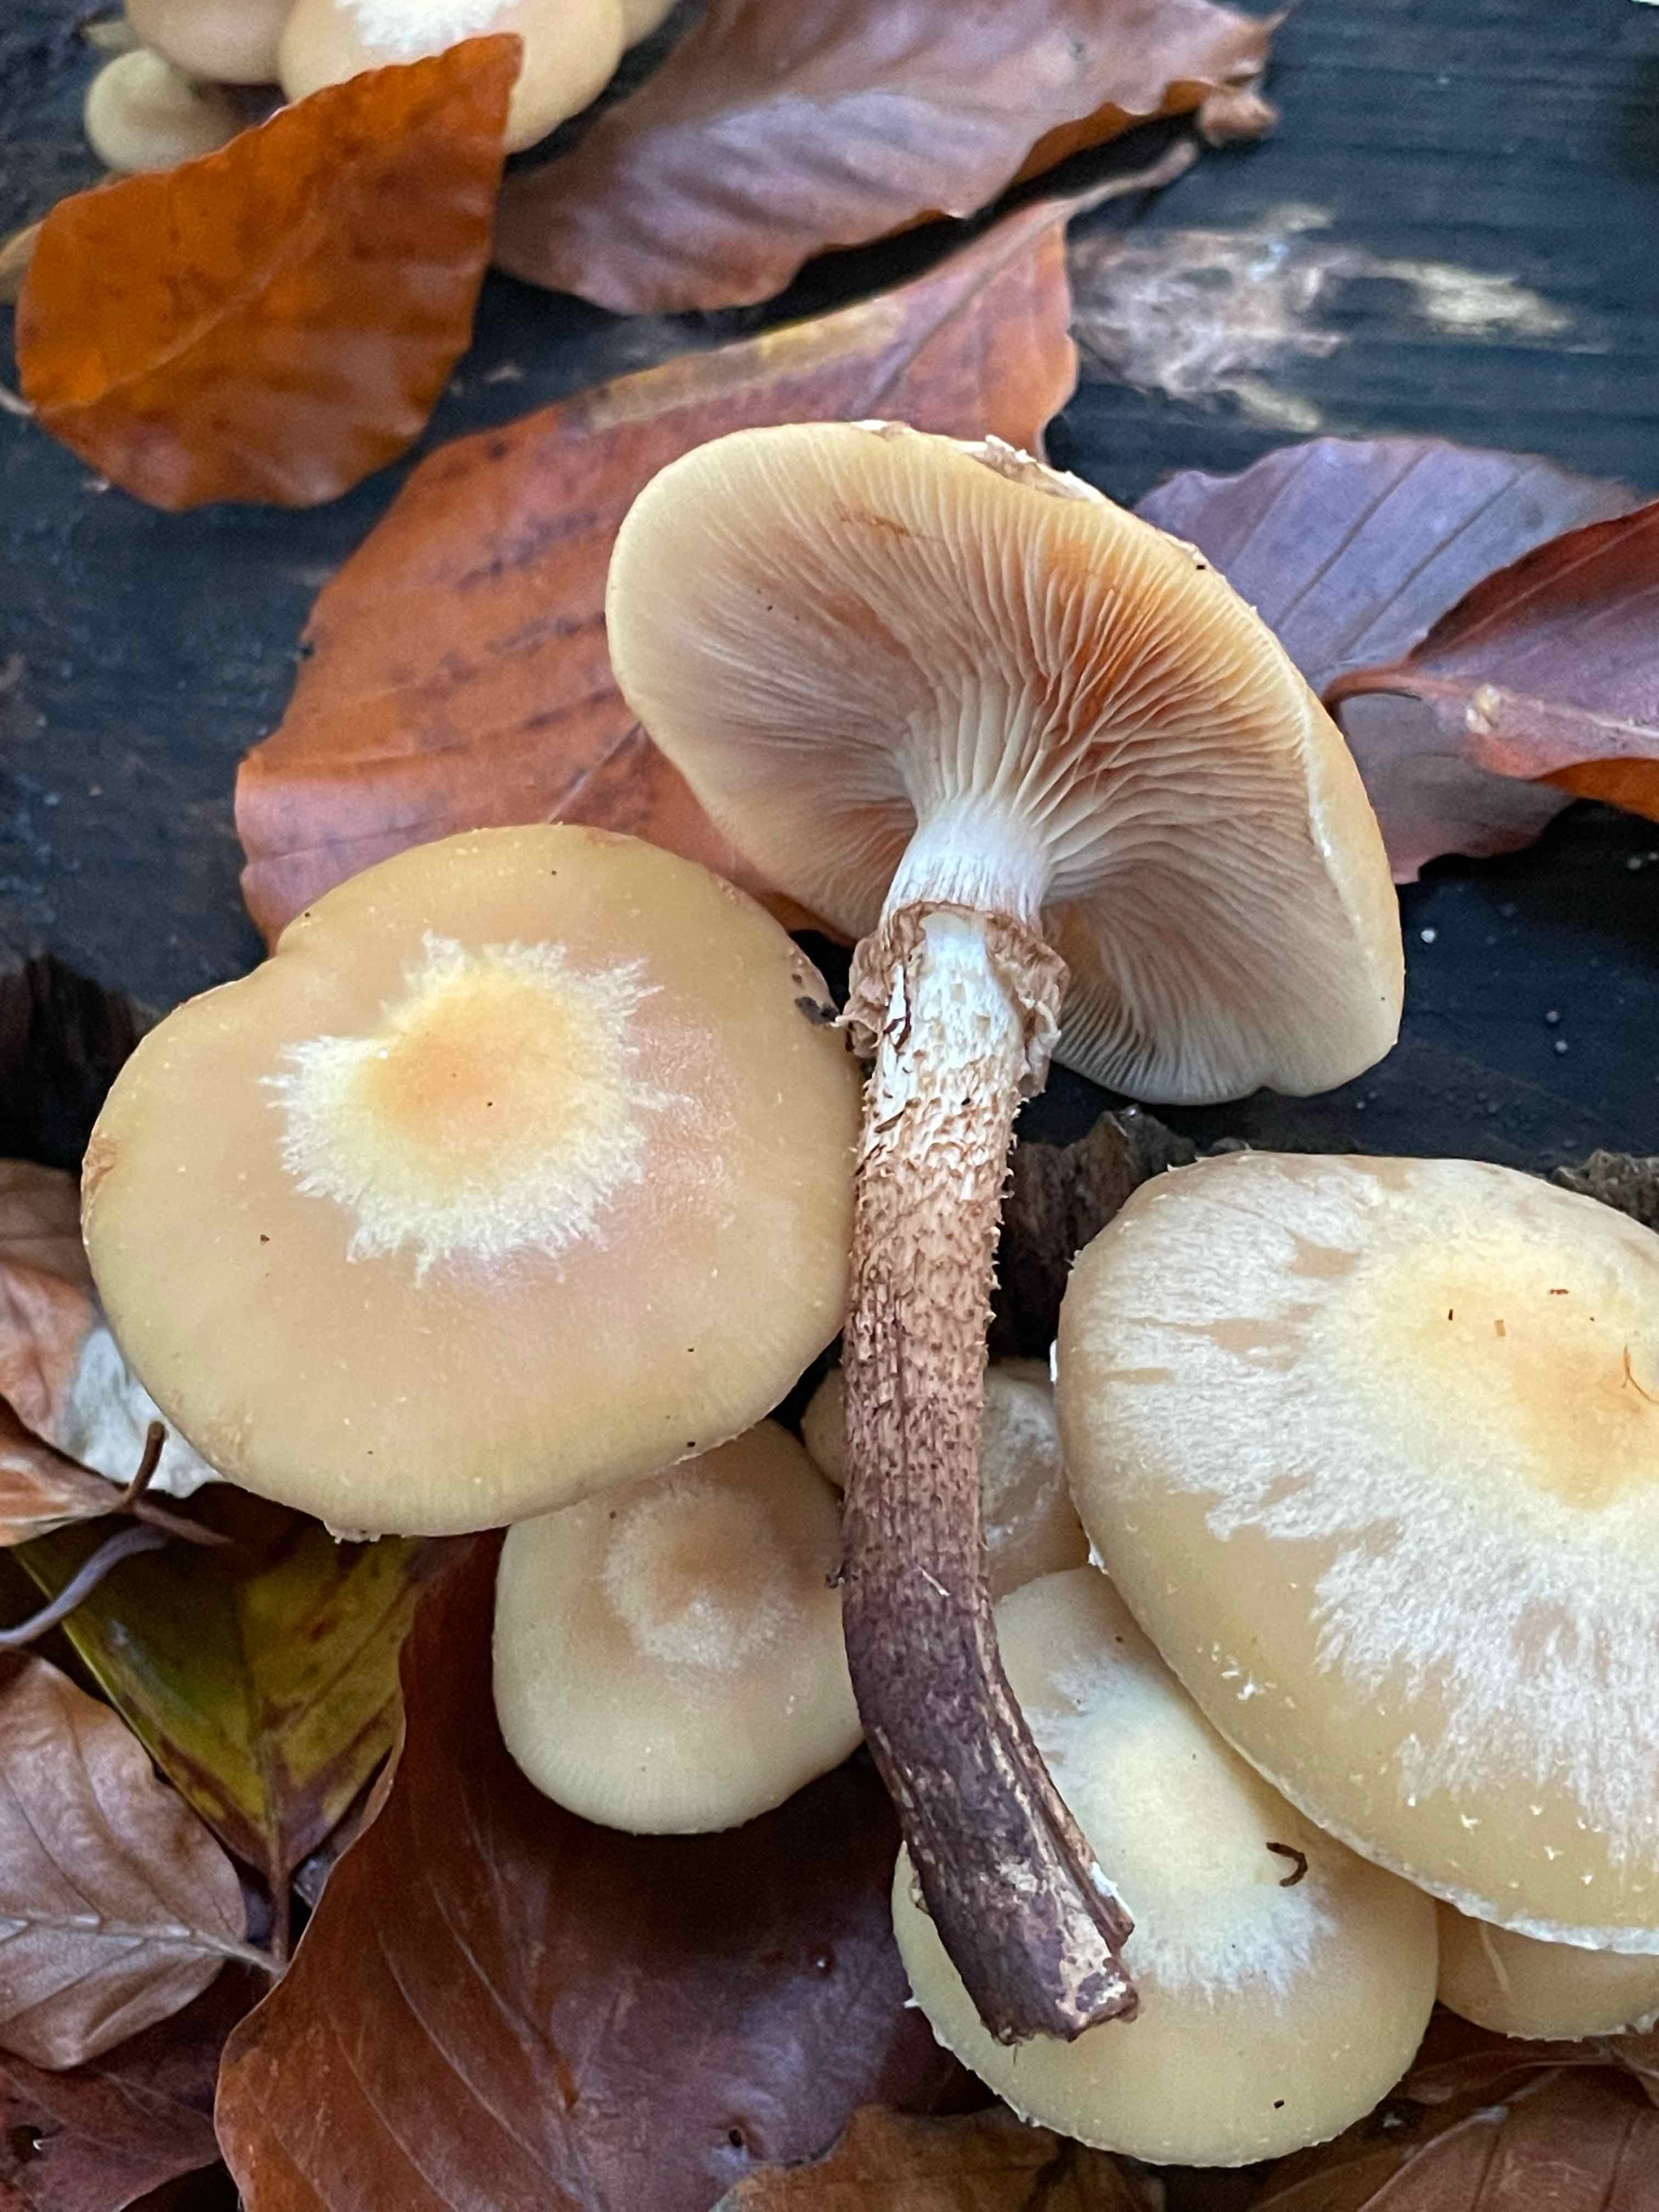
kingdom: Fungi
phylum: Basidiomycota
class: Agaricomycetes
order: Agaricales
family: Strophariaceae
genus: Kuehneromyces
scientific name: Kuehneromyces mutabilis
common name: foranderlig skælhat
